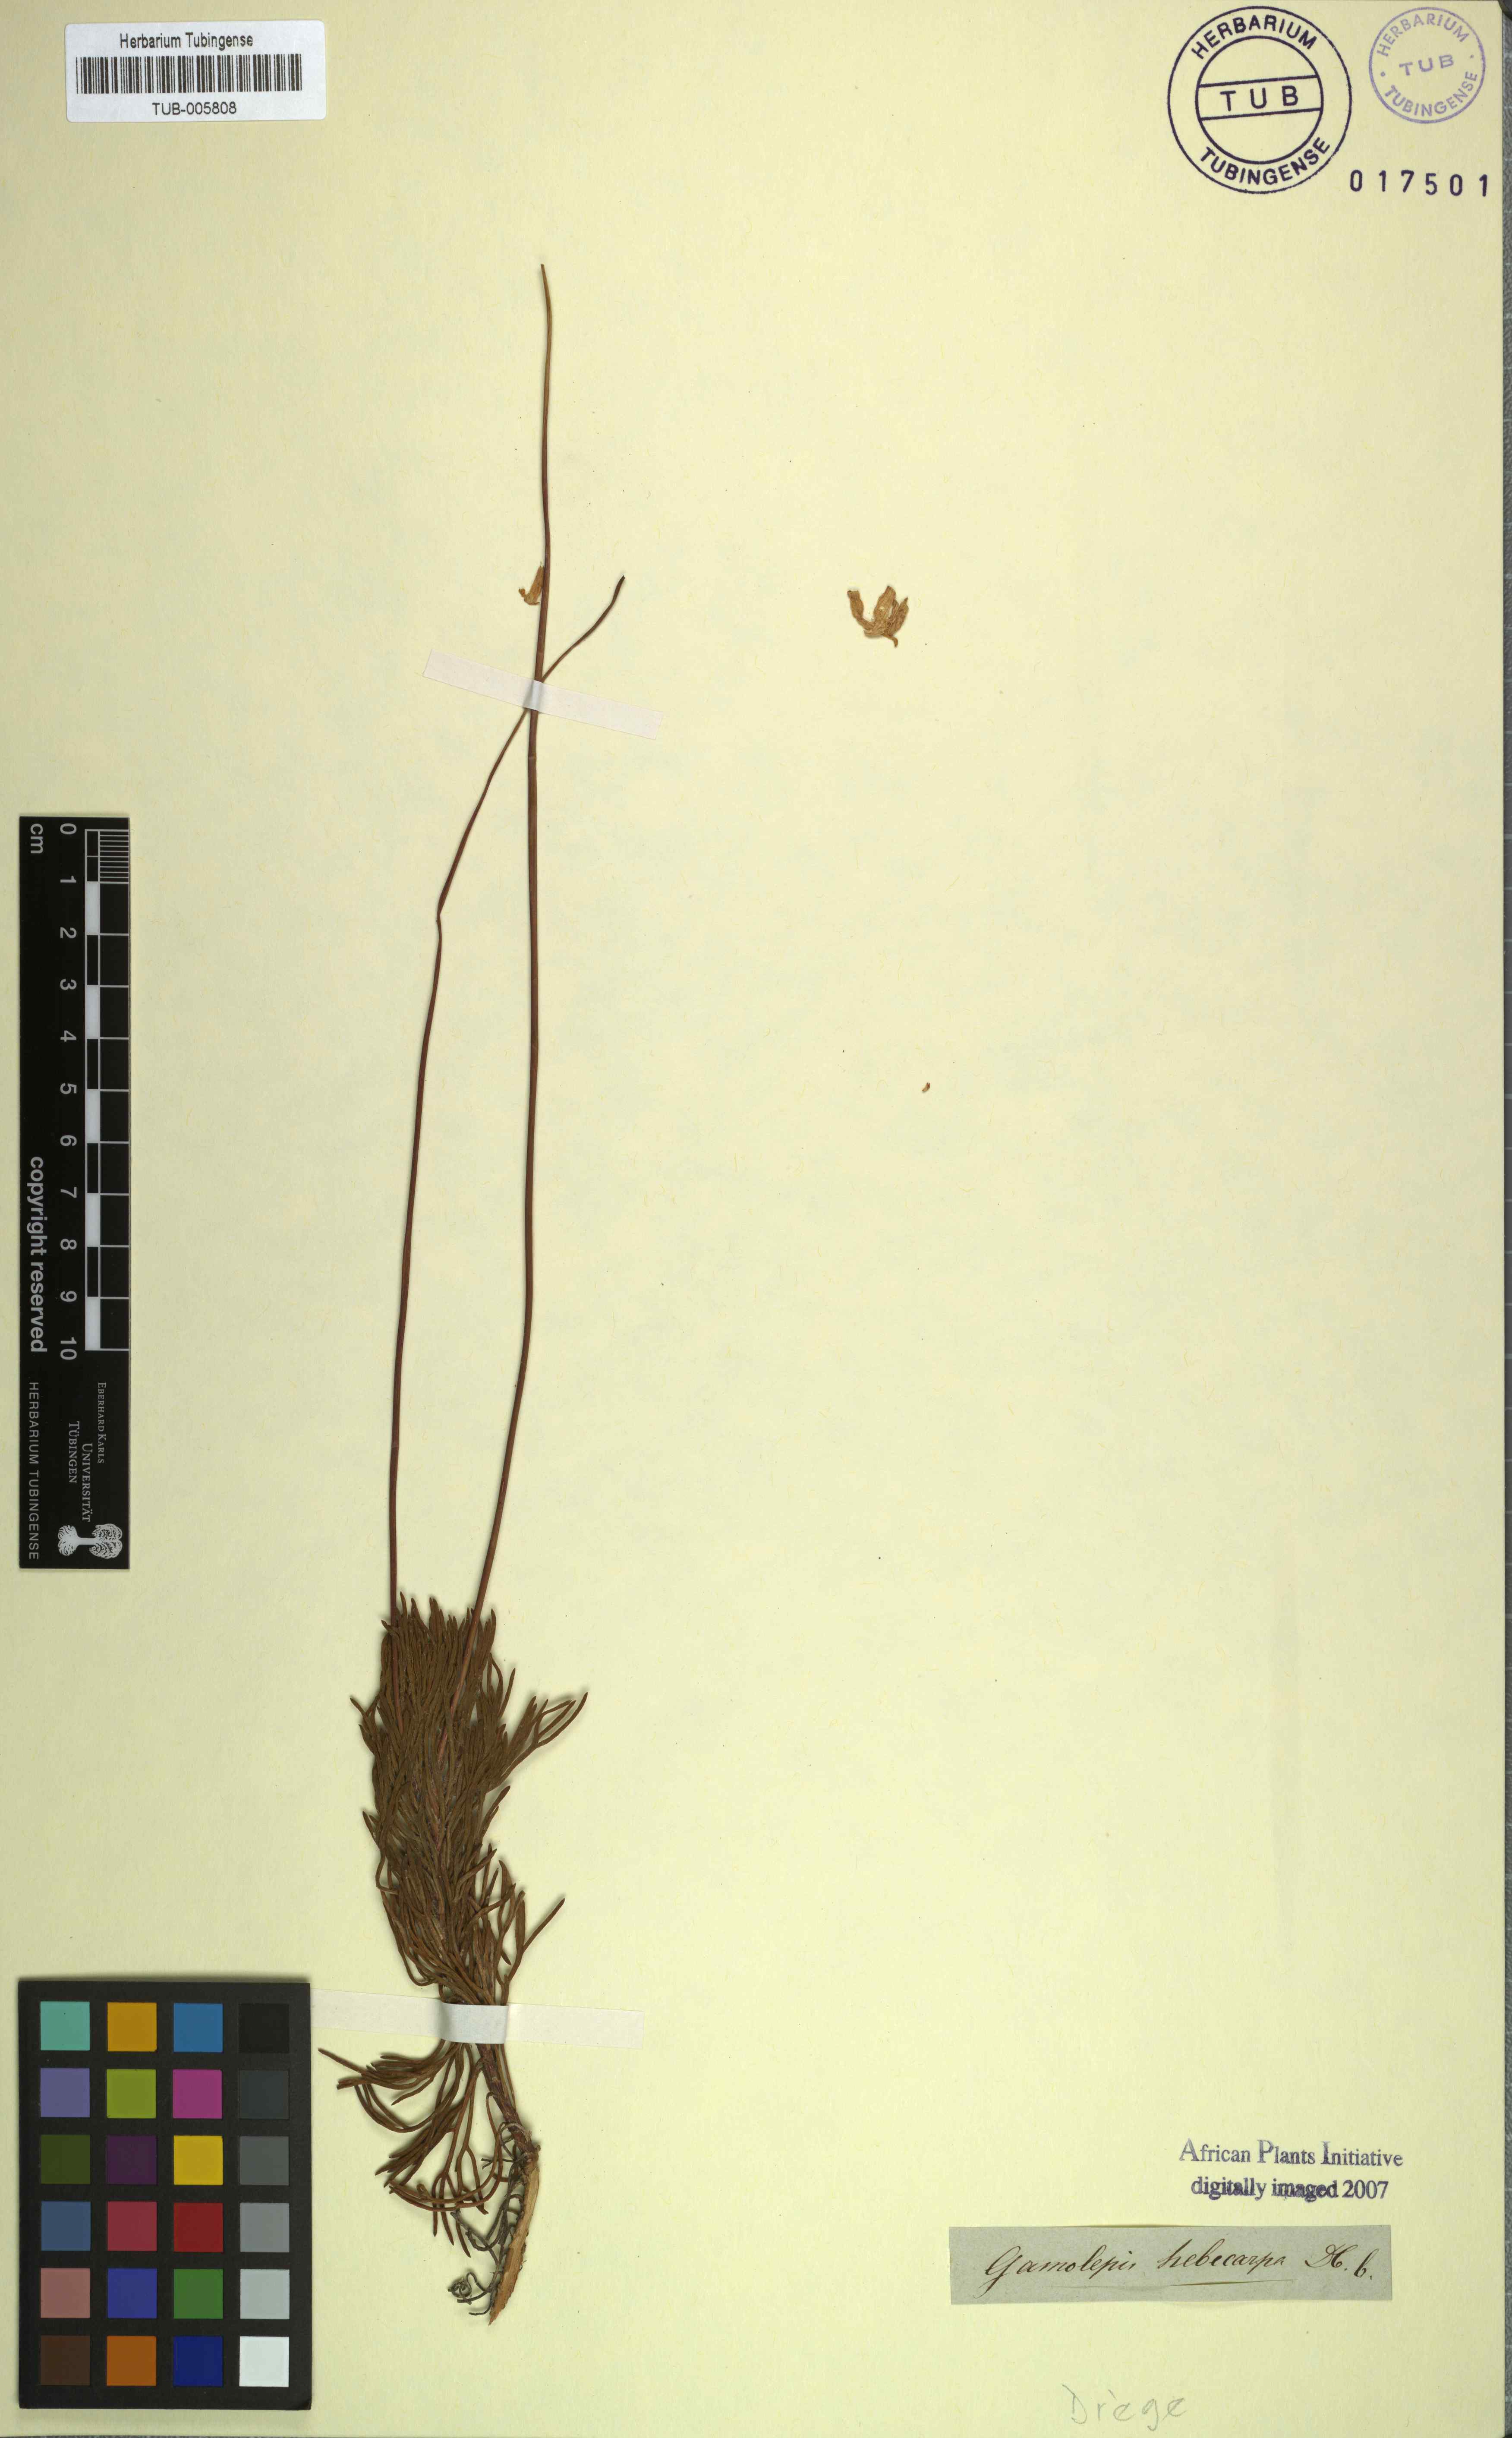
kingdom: Plantae
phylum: Tracheophyta
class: Magnoliopsida
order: Asterales
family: Asteraceae
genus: Euryops
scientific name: Euryops hebecarpus
